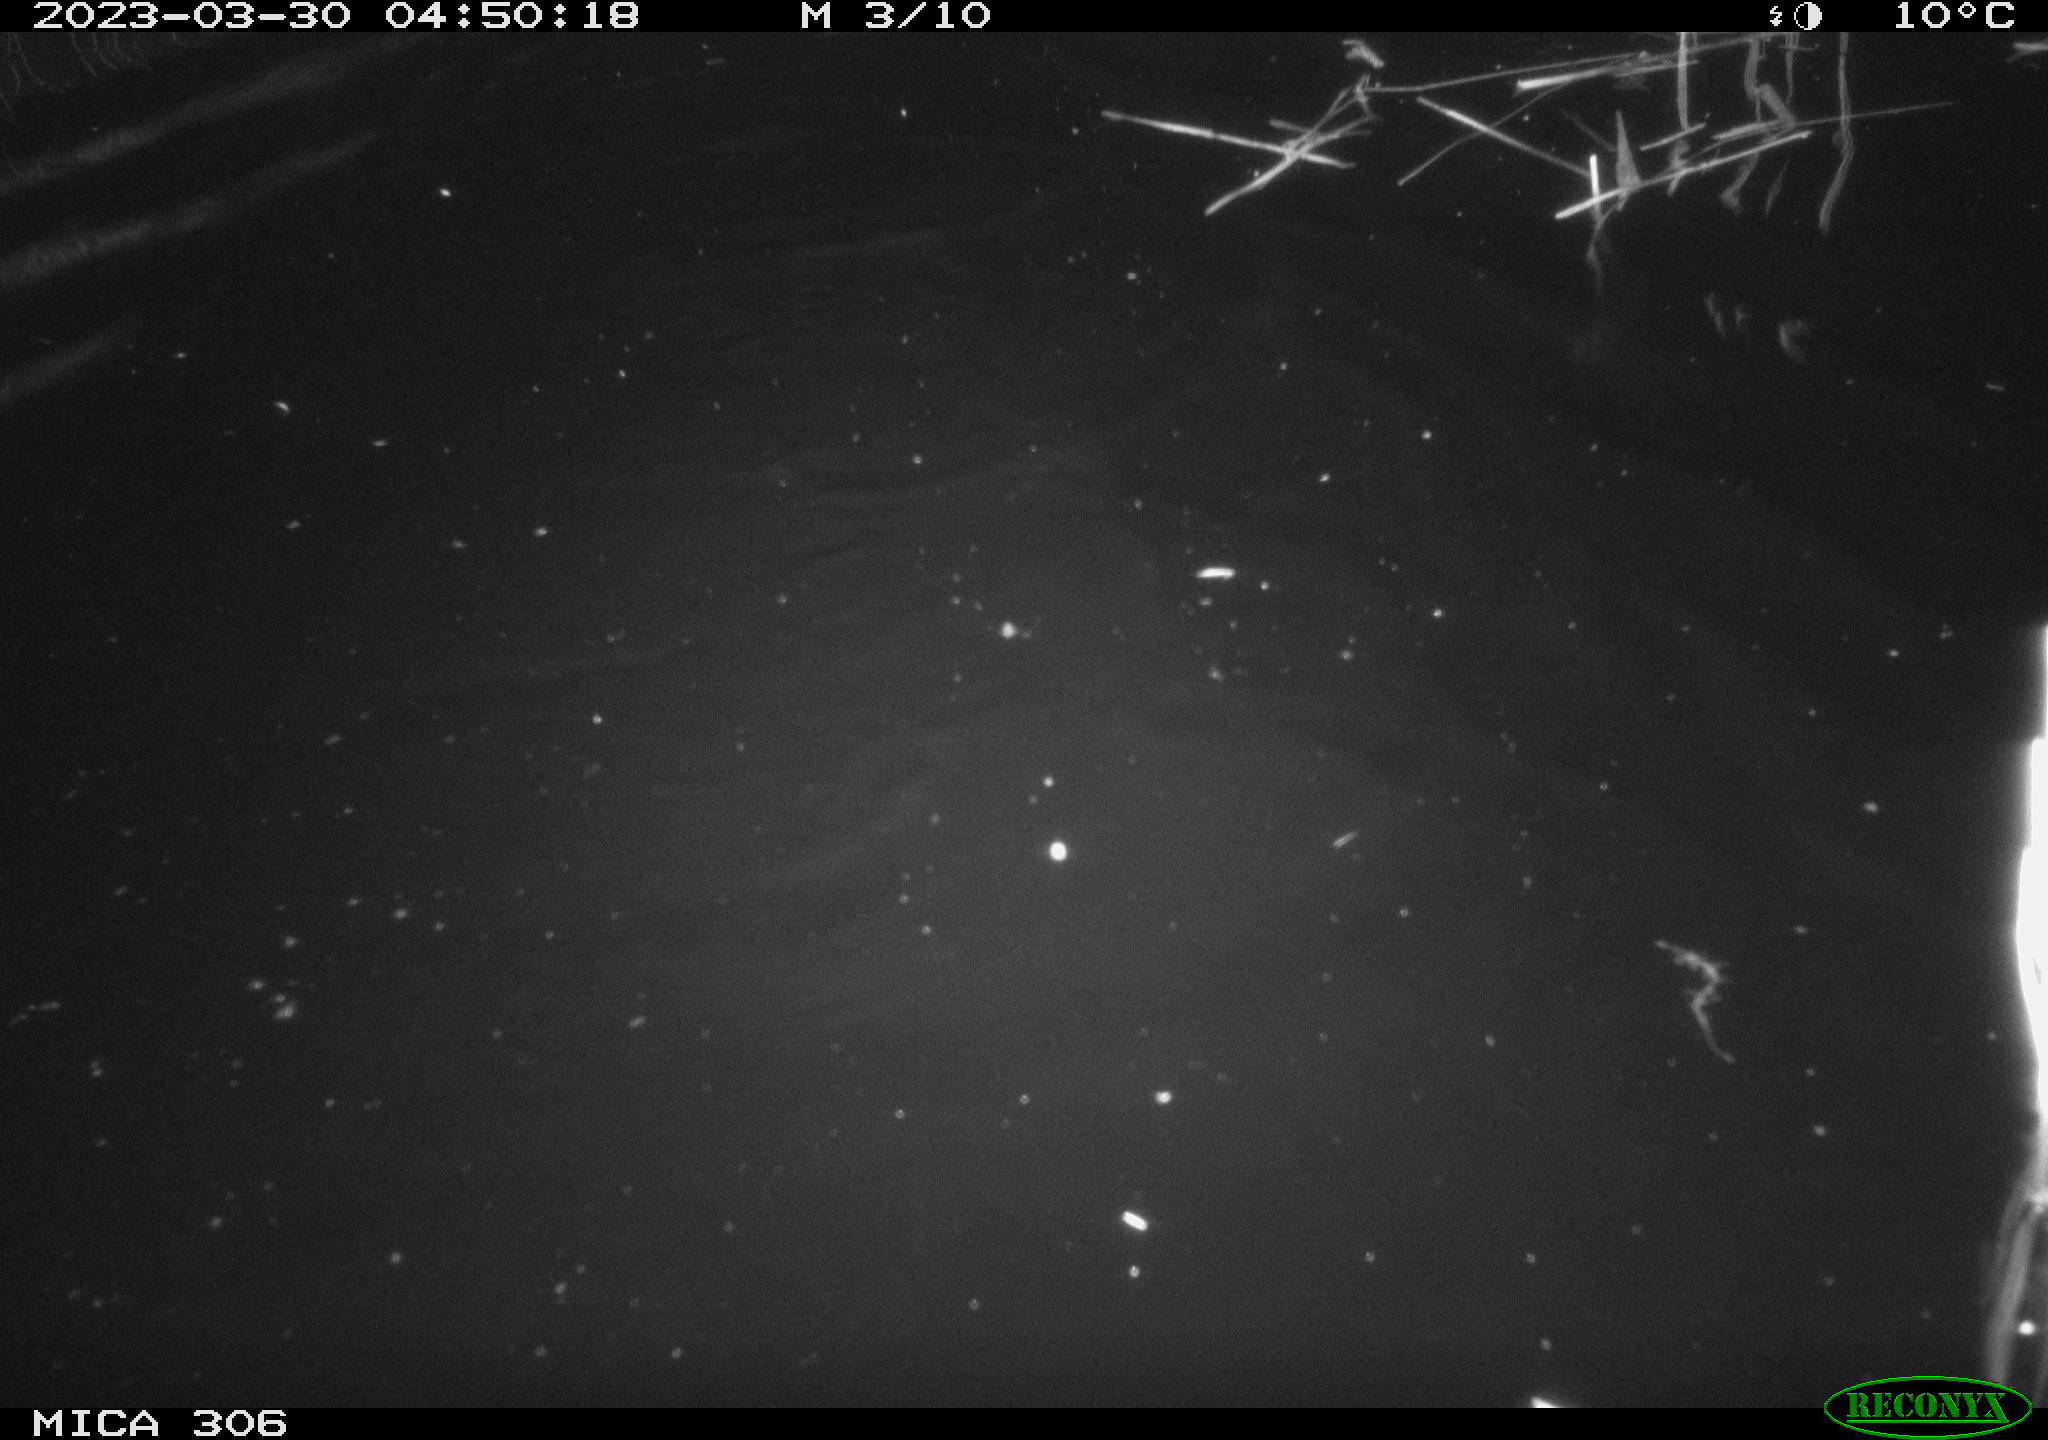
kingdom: Animalia
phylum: Chordata
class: Mammalia
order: Rodentia
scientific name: Rodentia
